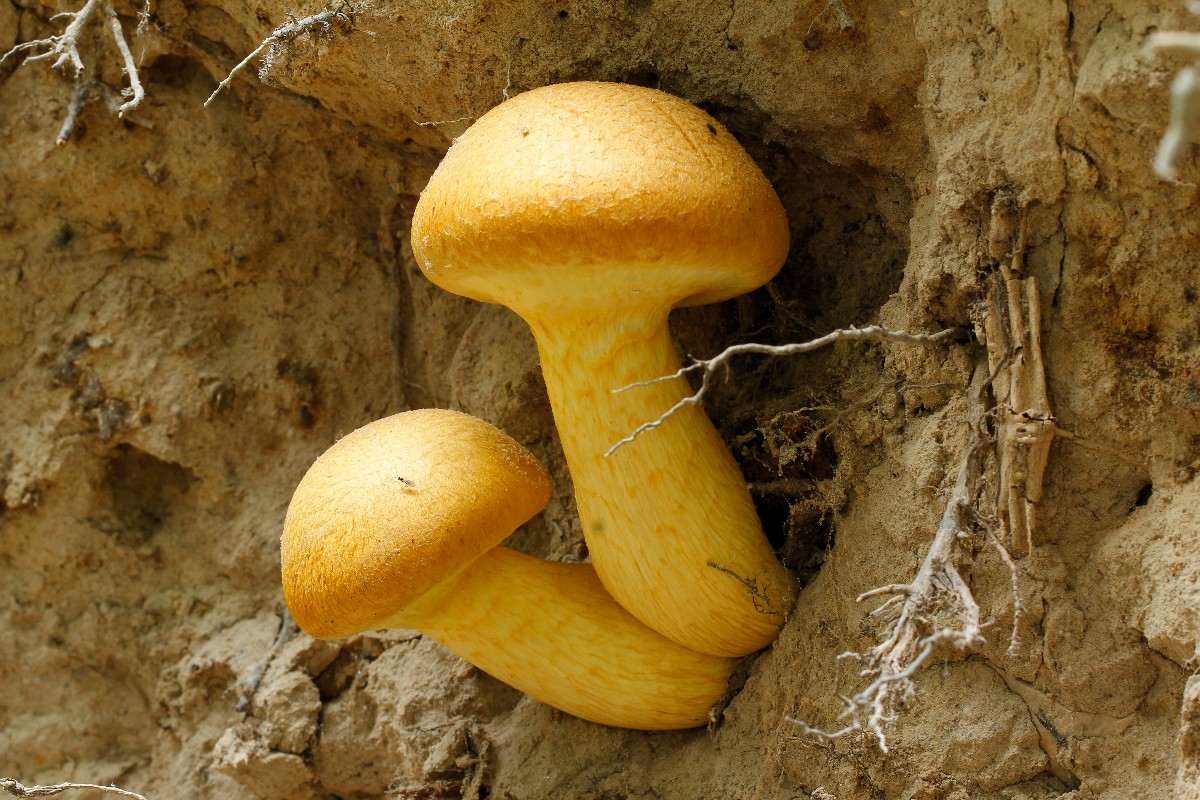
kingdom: Fungi
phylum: Basidiomycota
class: Agaricomycetes
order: Agaricales
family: Hymenogastraceae
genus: Gymnopilus
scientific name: Gymnopilus spectabilis
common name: fibret flammehat
